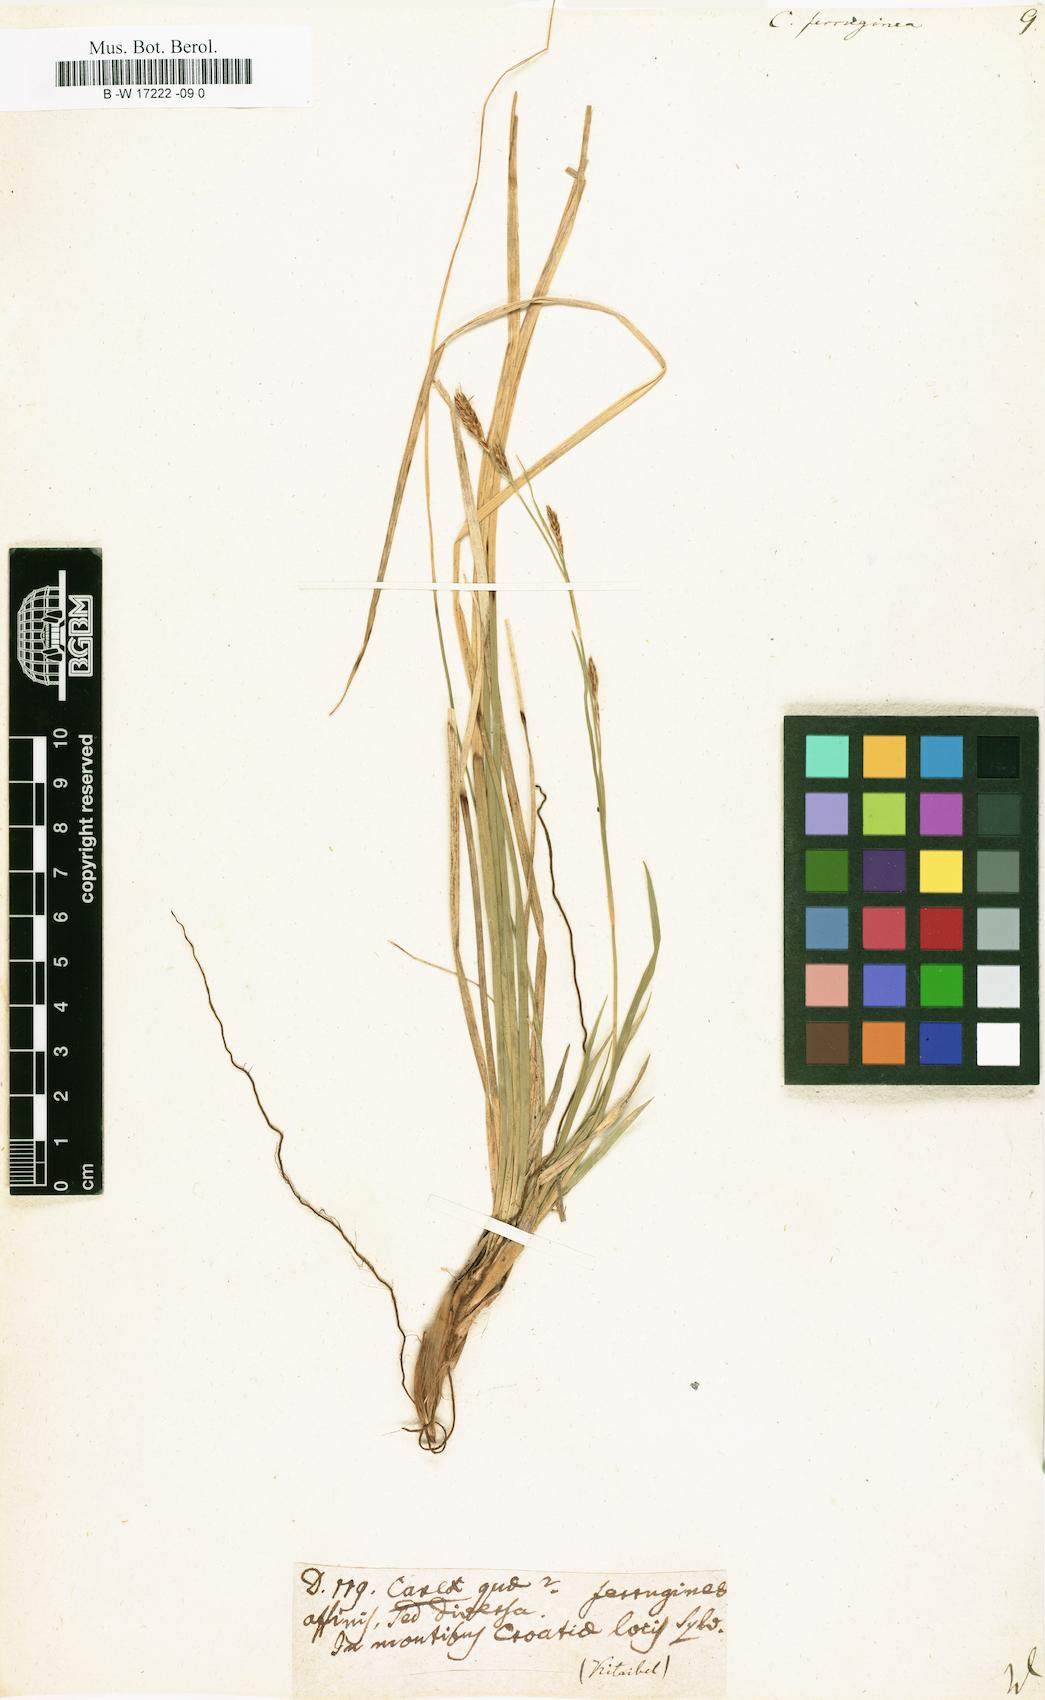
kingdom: Plantae
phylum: Tracheophyta
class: Liliopsida
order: Poales
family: Cyperaceae
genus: Carex
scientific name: Carex ferruginea
